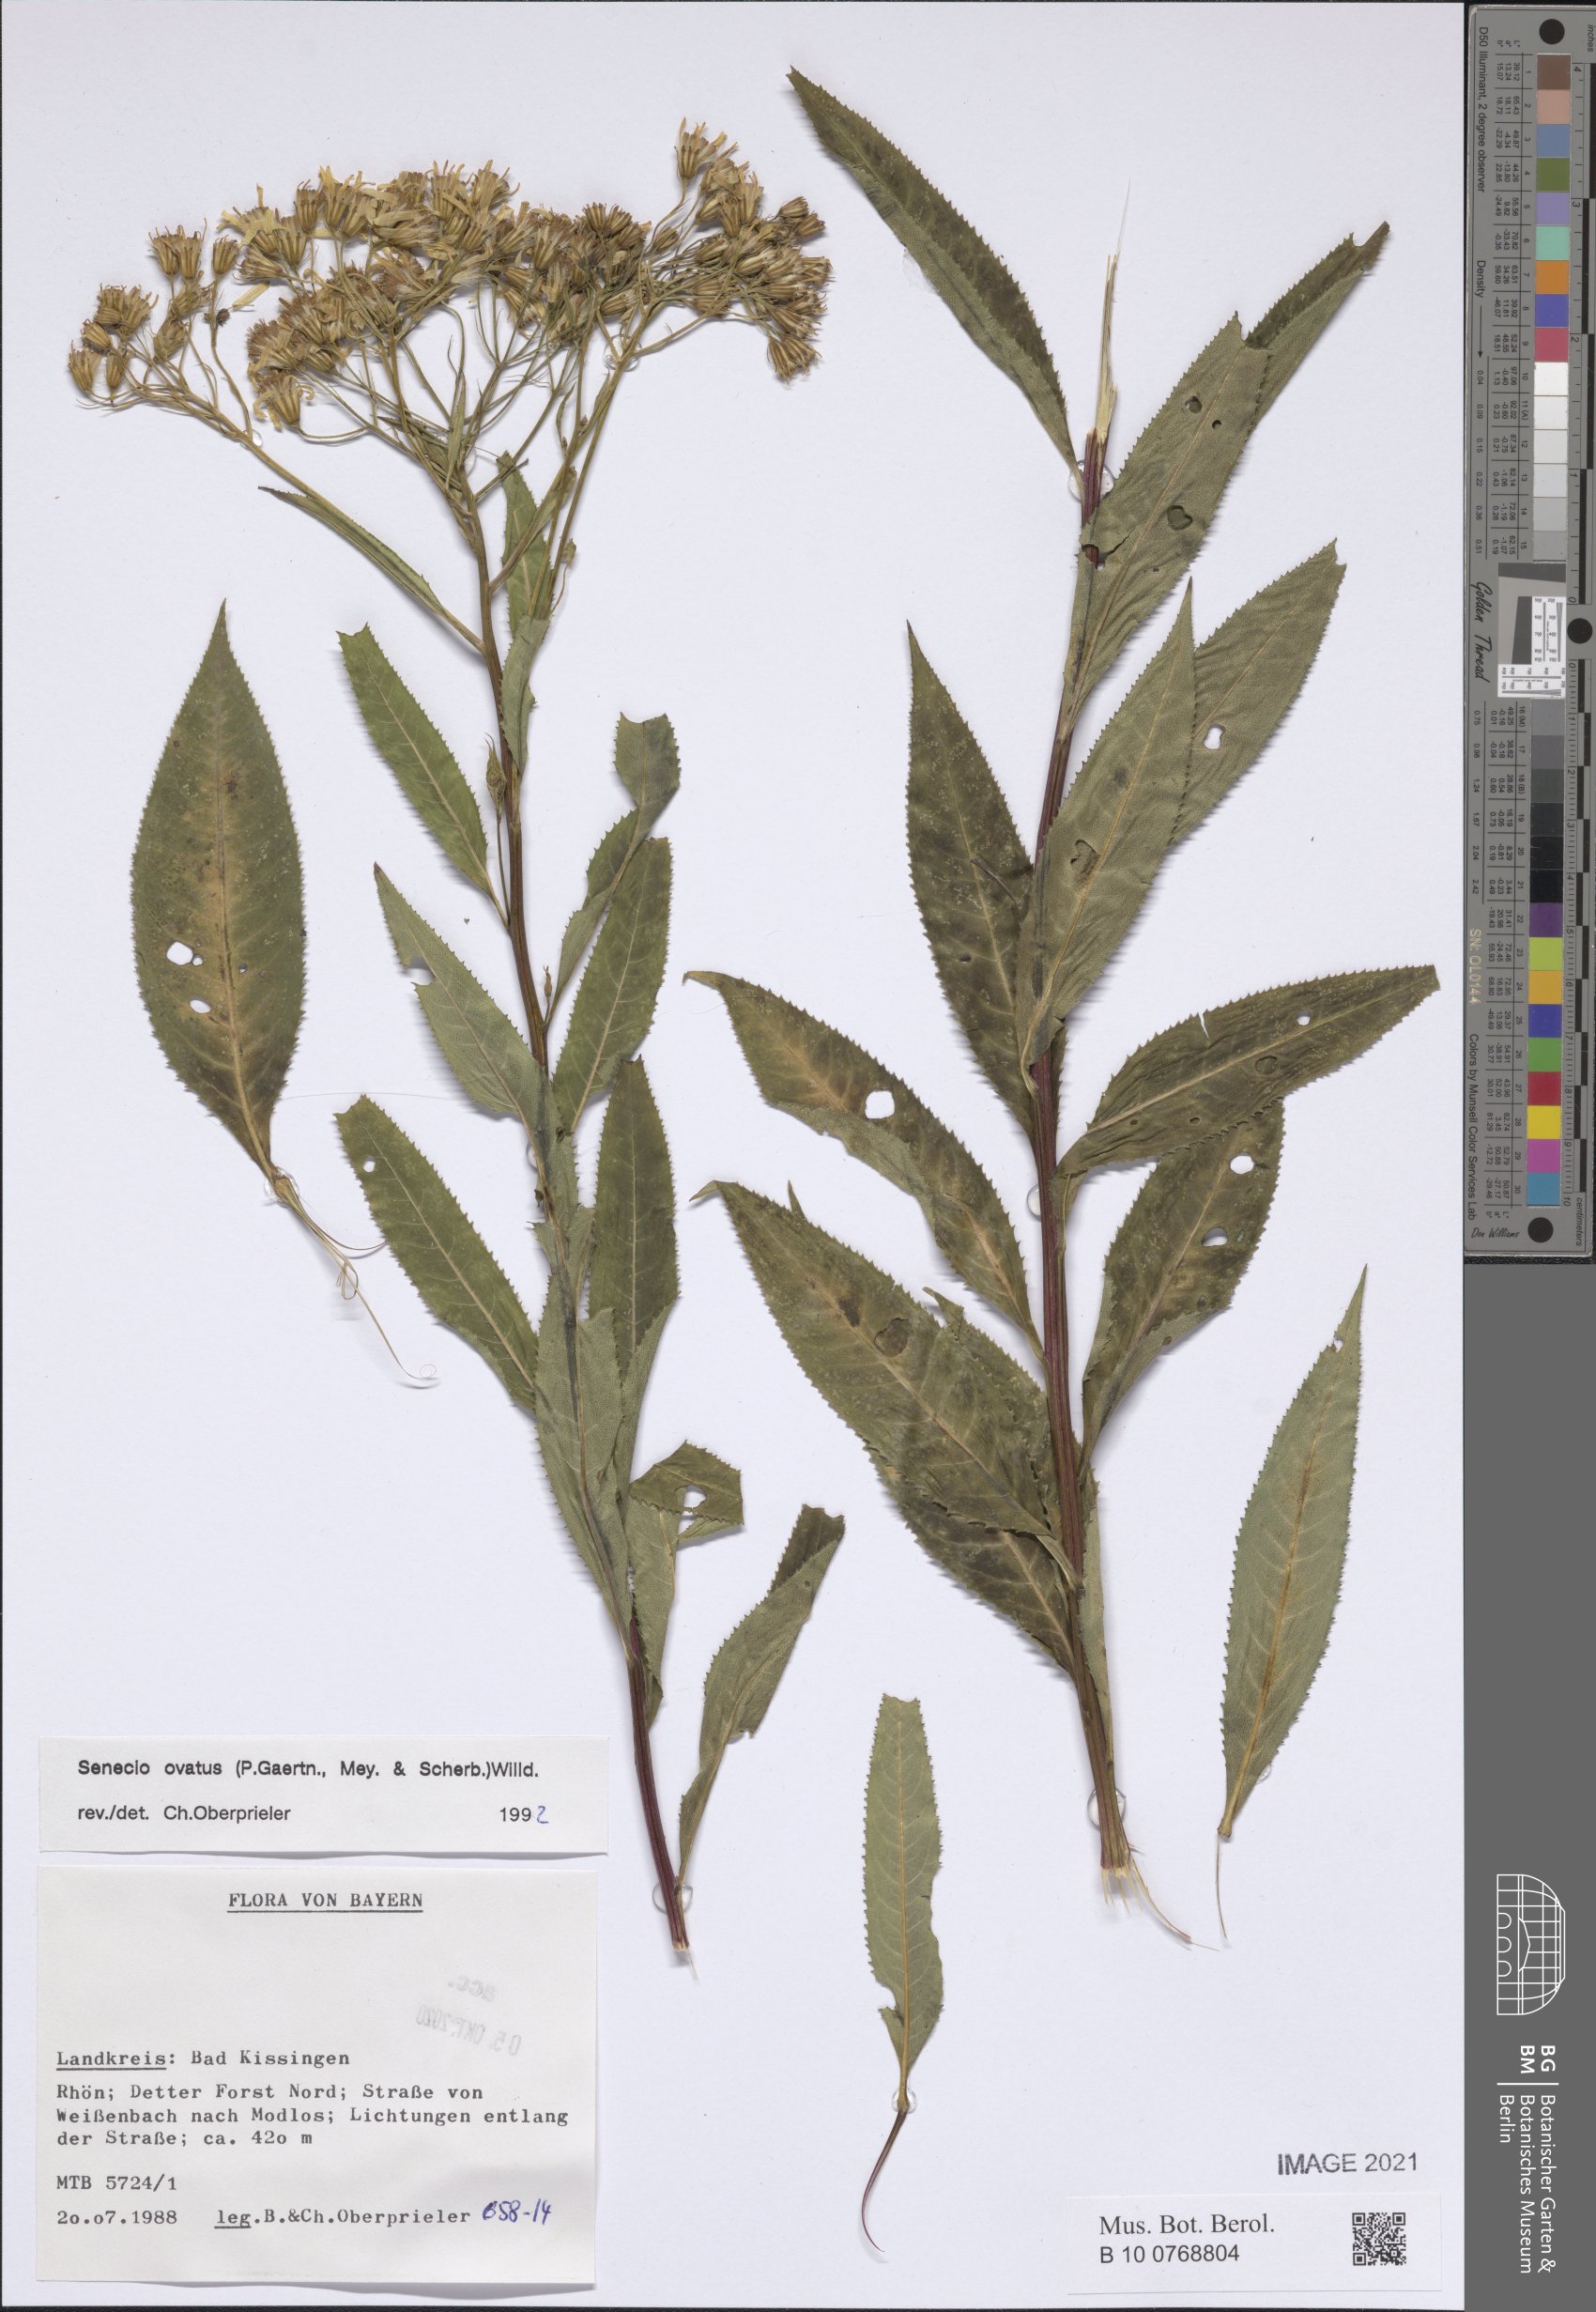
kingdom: Plantae
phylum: Tracheophyta
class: Magnoliopsida
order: Asterales
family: Asteraceae
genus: Senecio
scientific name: Senecio ovatus
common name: Wood ragwort
